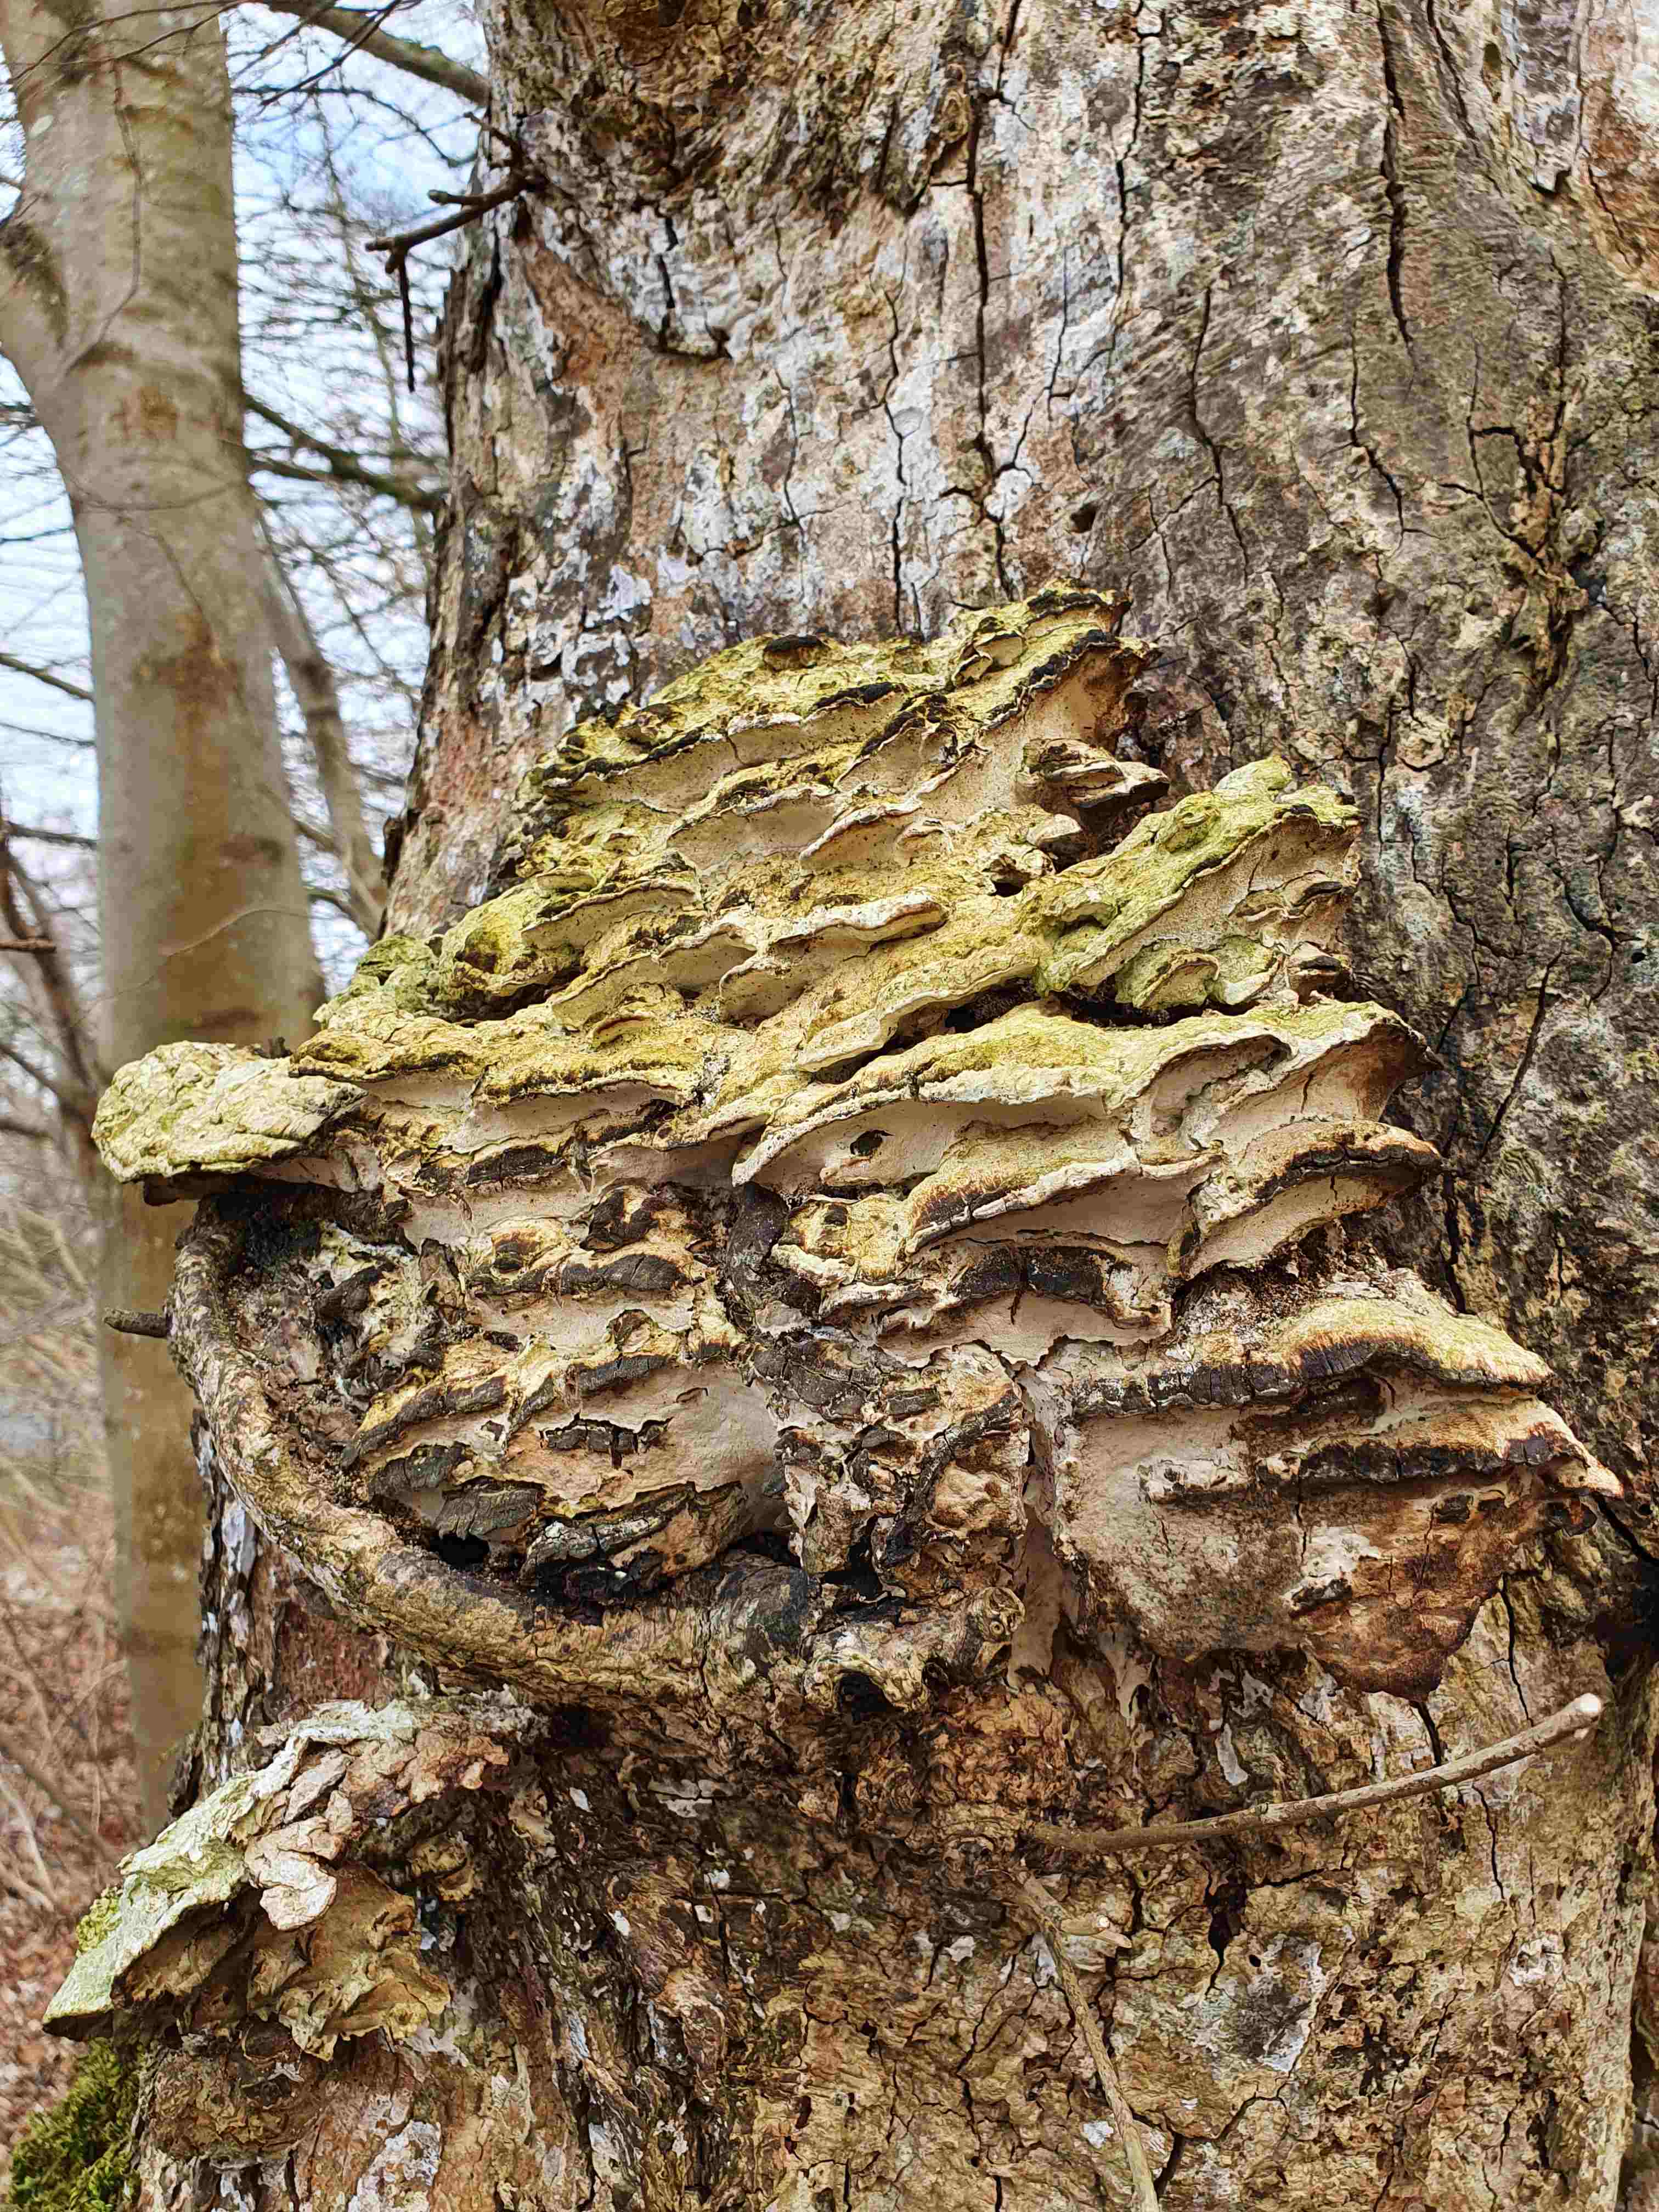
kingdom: Fungi
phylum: Basidiomycota
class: Agaricomycetes
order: Hymenochaetales
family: Oxyporaceae
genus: Oxyporus
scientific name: Oxyporus populinus
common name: sammenvokset trylleporesvamp
